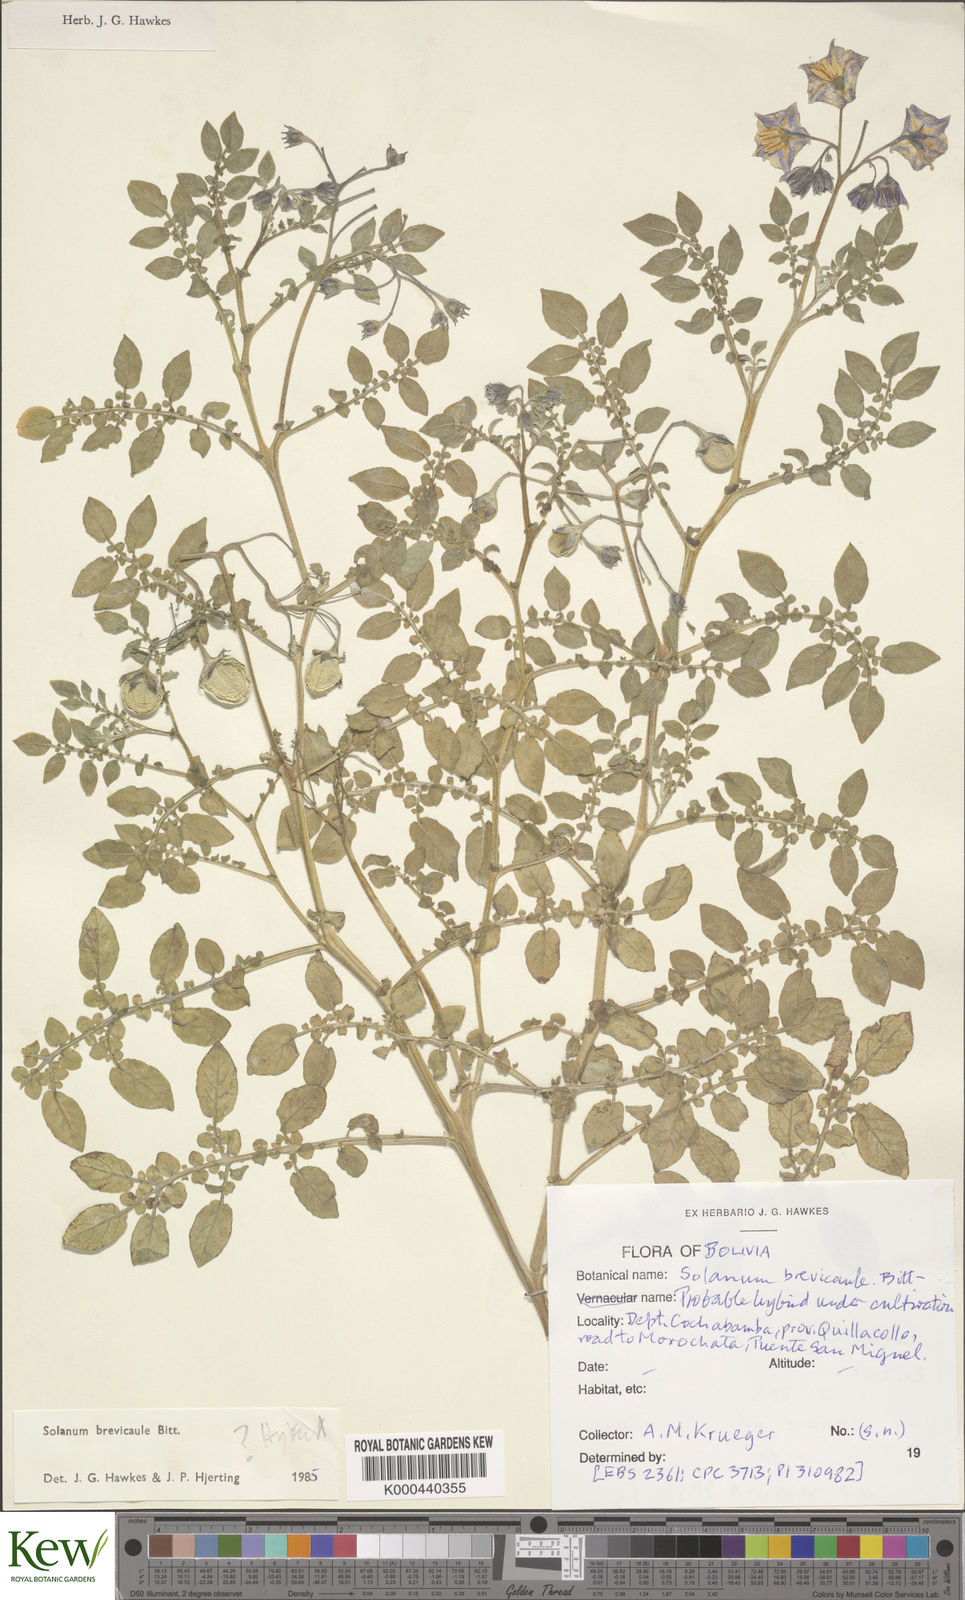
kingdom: Plantae
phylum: Tracheophyta
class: Magnoliopsida
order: Solanales
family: Solanaceae
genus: Solanum
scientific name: Solanum brevicaule
